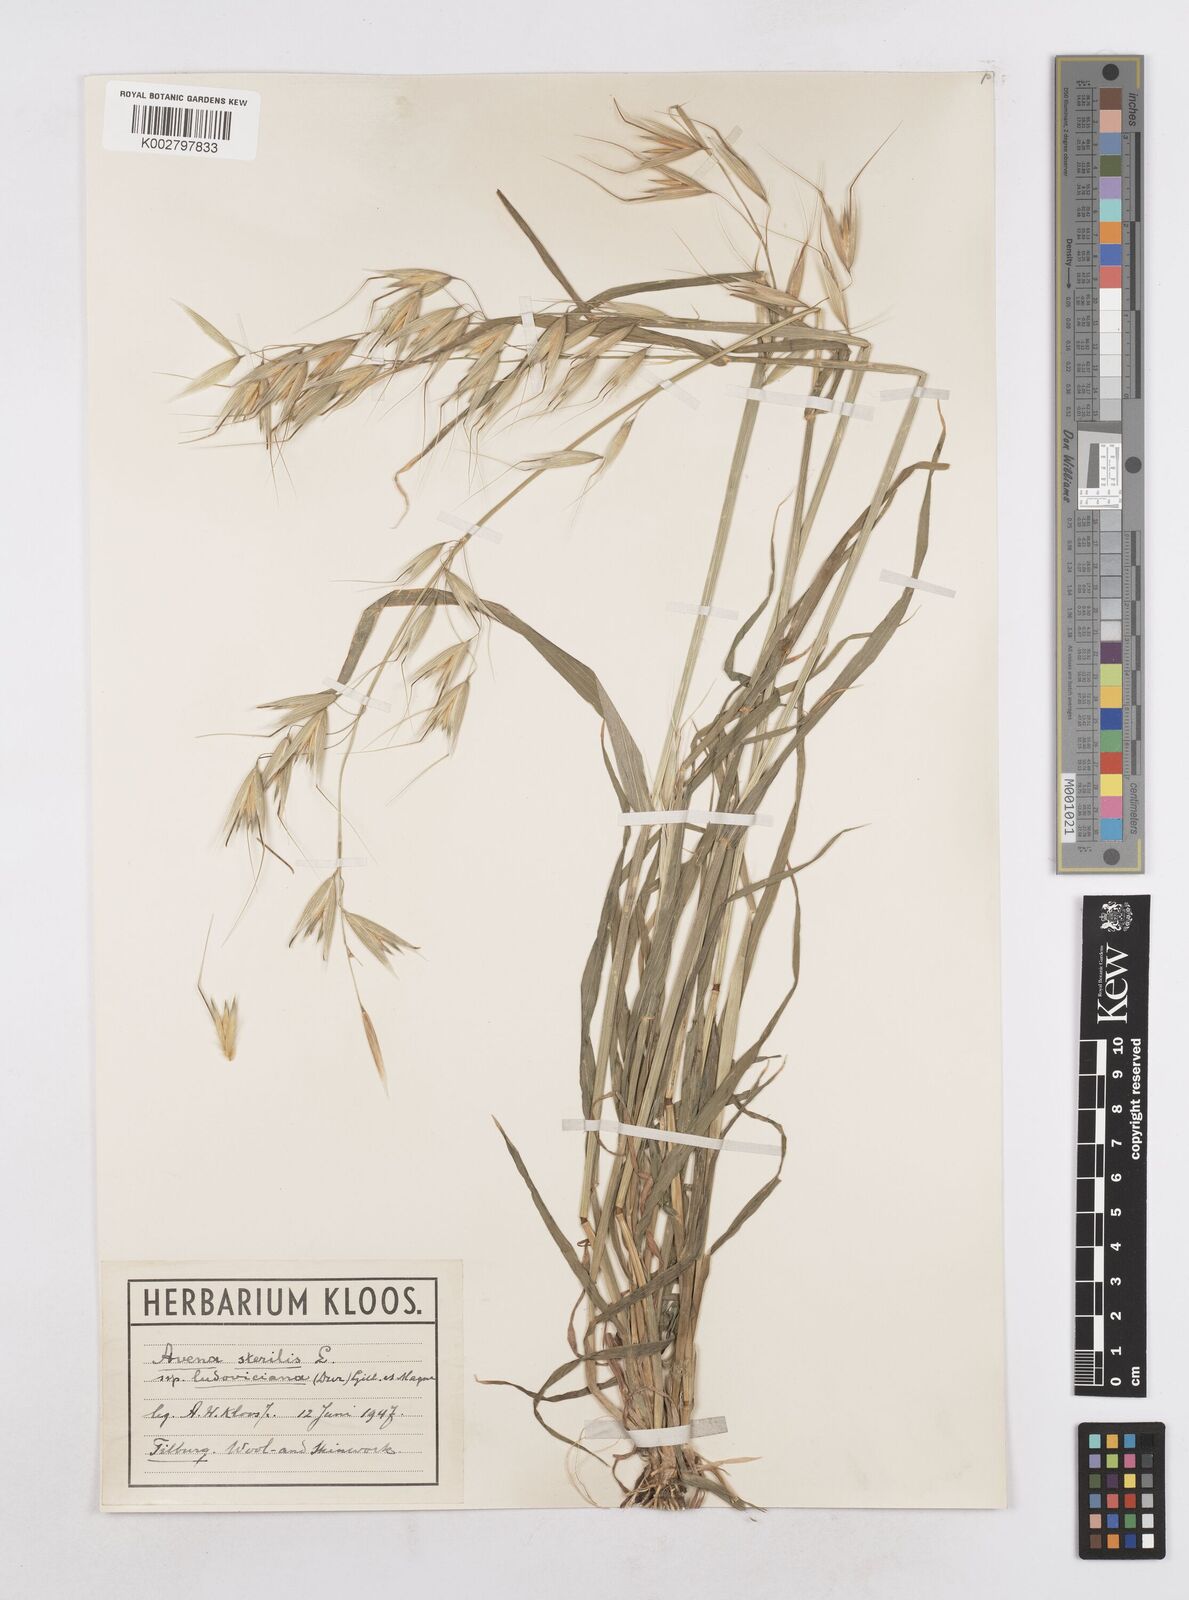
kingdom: Plantae
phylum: Tracheophyta
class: Liliopsida
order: Poales
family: Poaceae
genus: Avena
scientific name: Avena sterilis
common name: Animated oat
